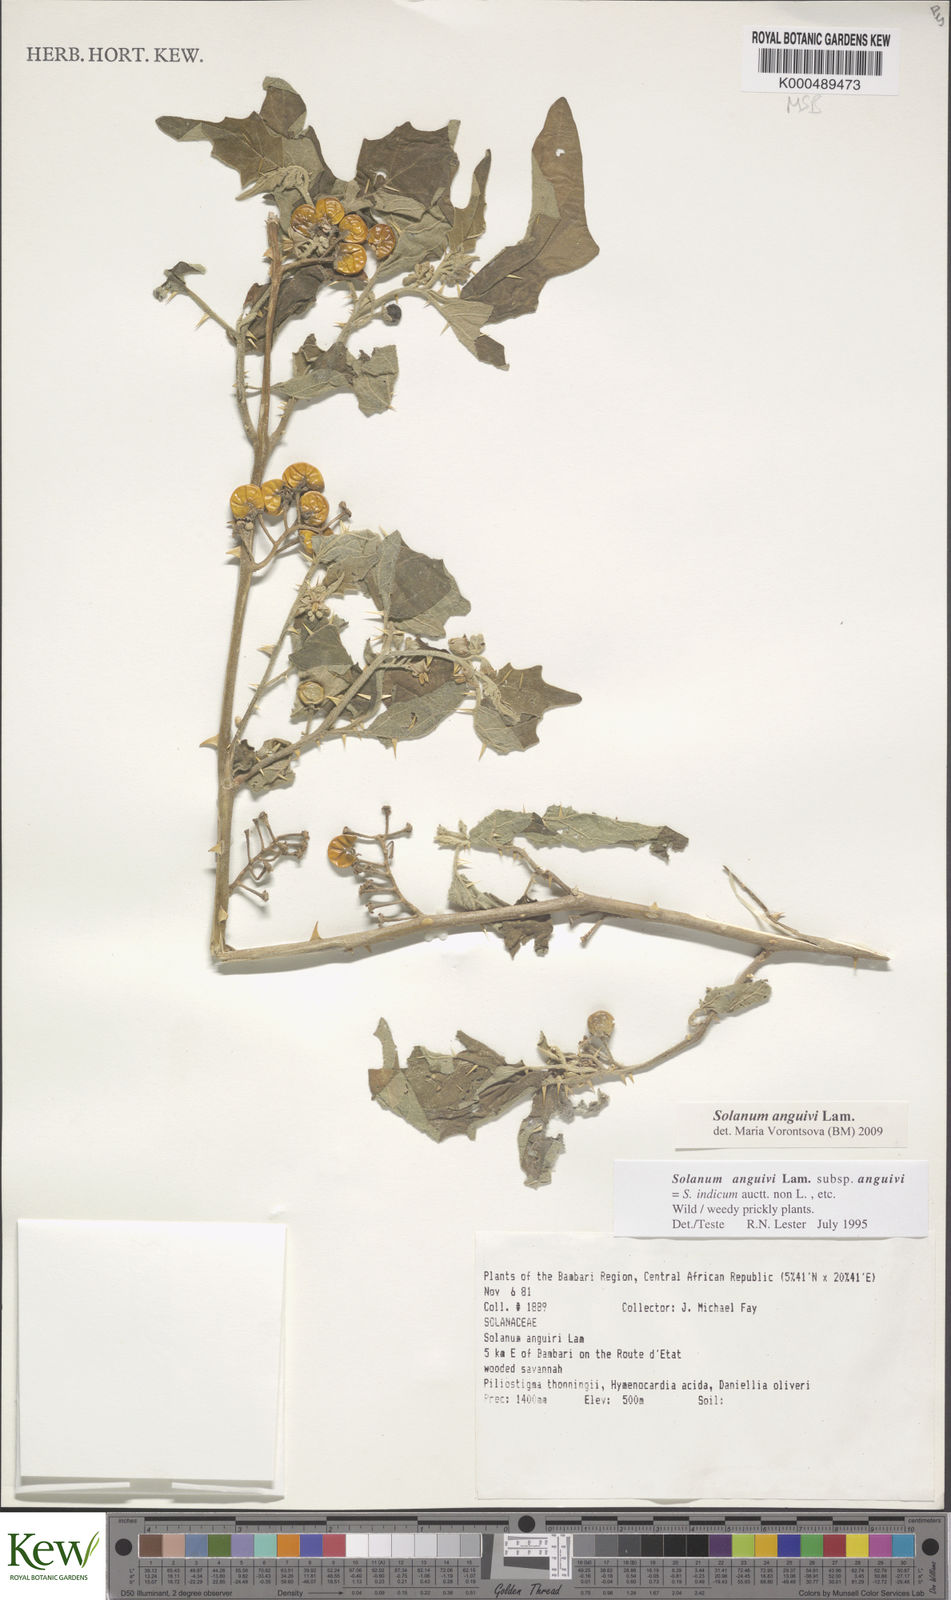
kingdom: Plantae
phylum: Tracheophyta
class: Magnoliopsida
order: Solanales
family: Solanaceae
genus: Solanum
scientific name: Solanum anguivi
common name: Forest bitterberry
